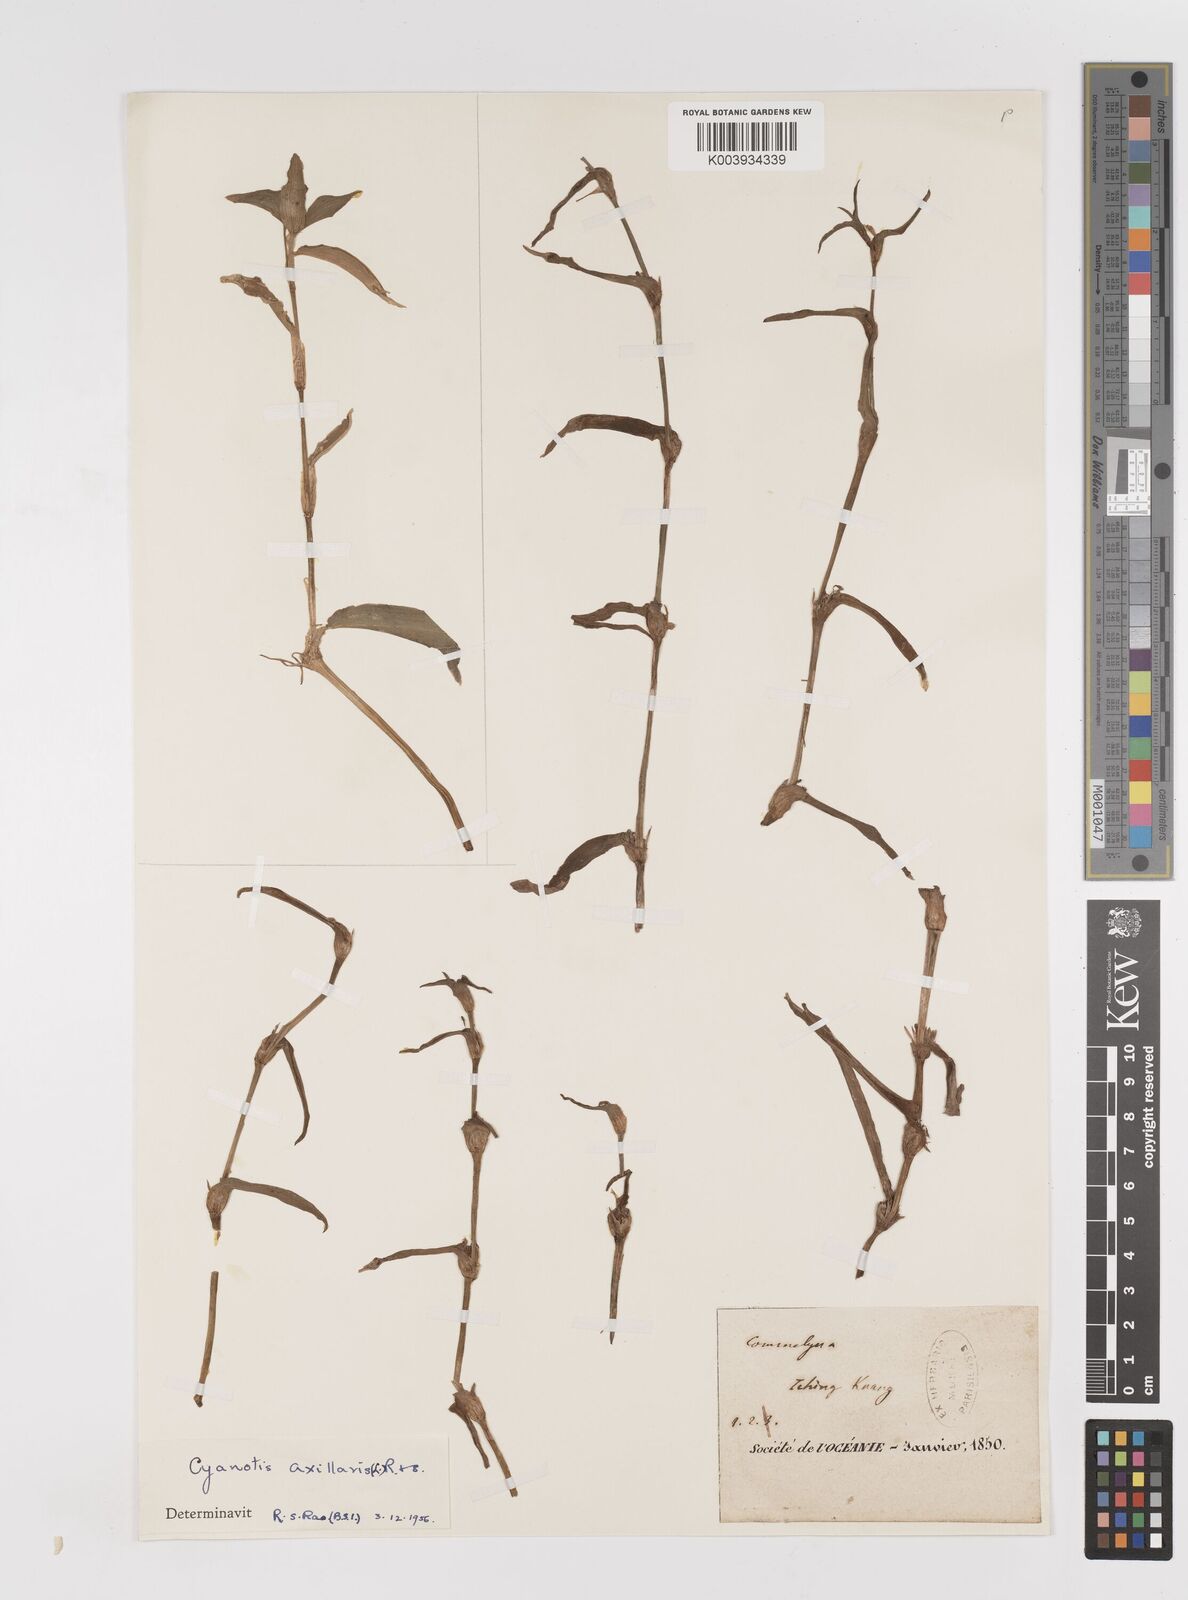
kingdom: Plantae
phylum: Tracheophyta
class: Liliopsida
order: Commelinales
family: Commelinaceae
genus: Cyanotis
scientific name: Cyanotis axillaris
